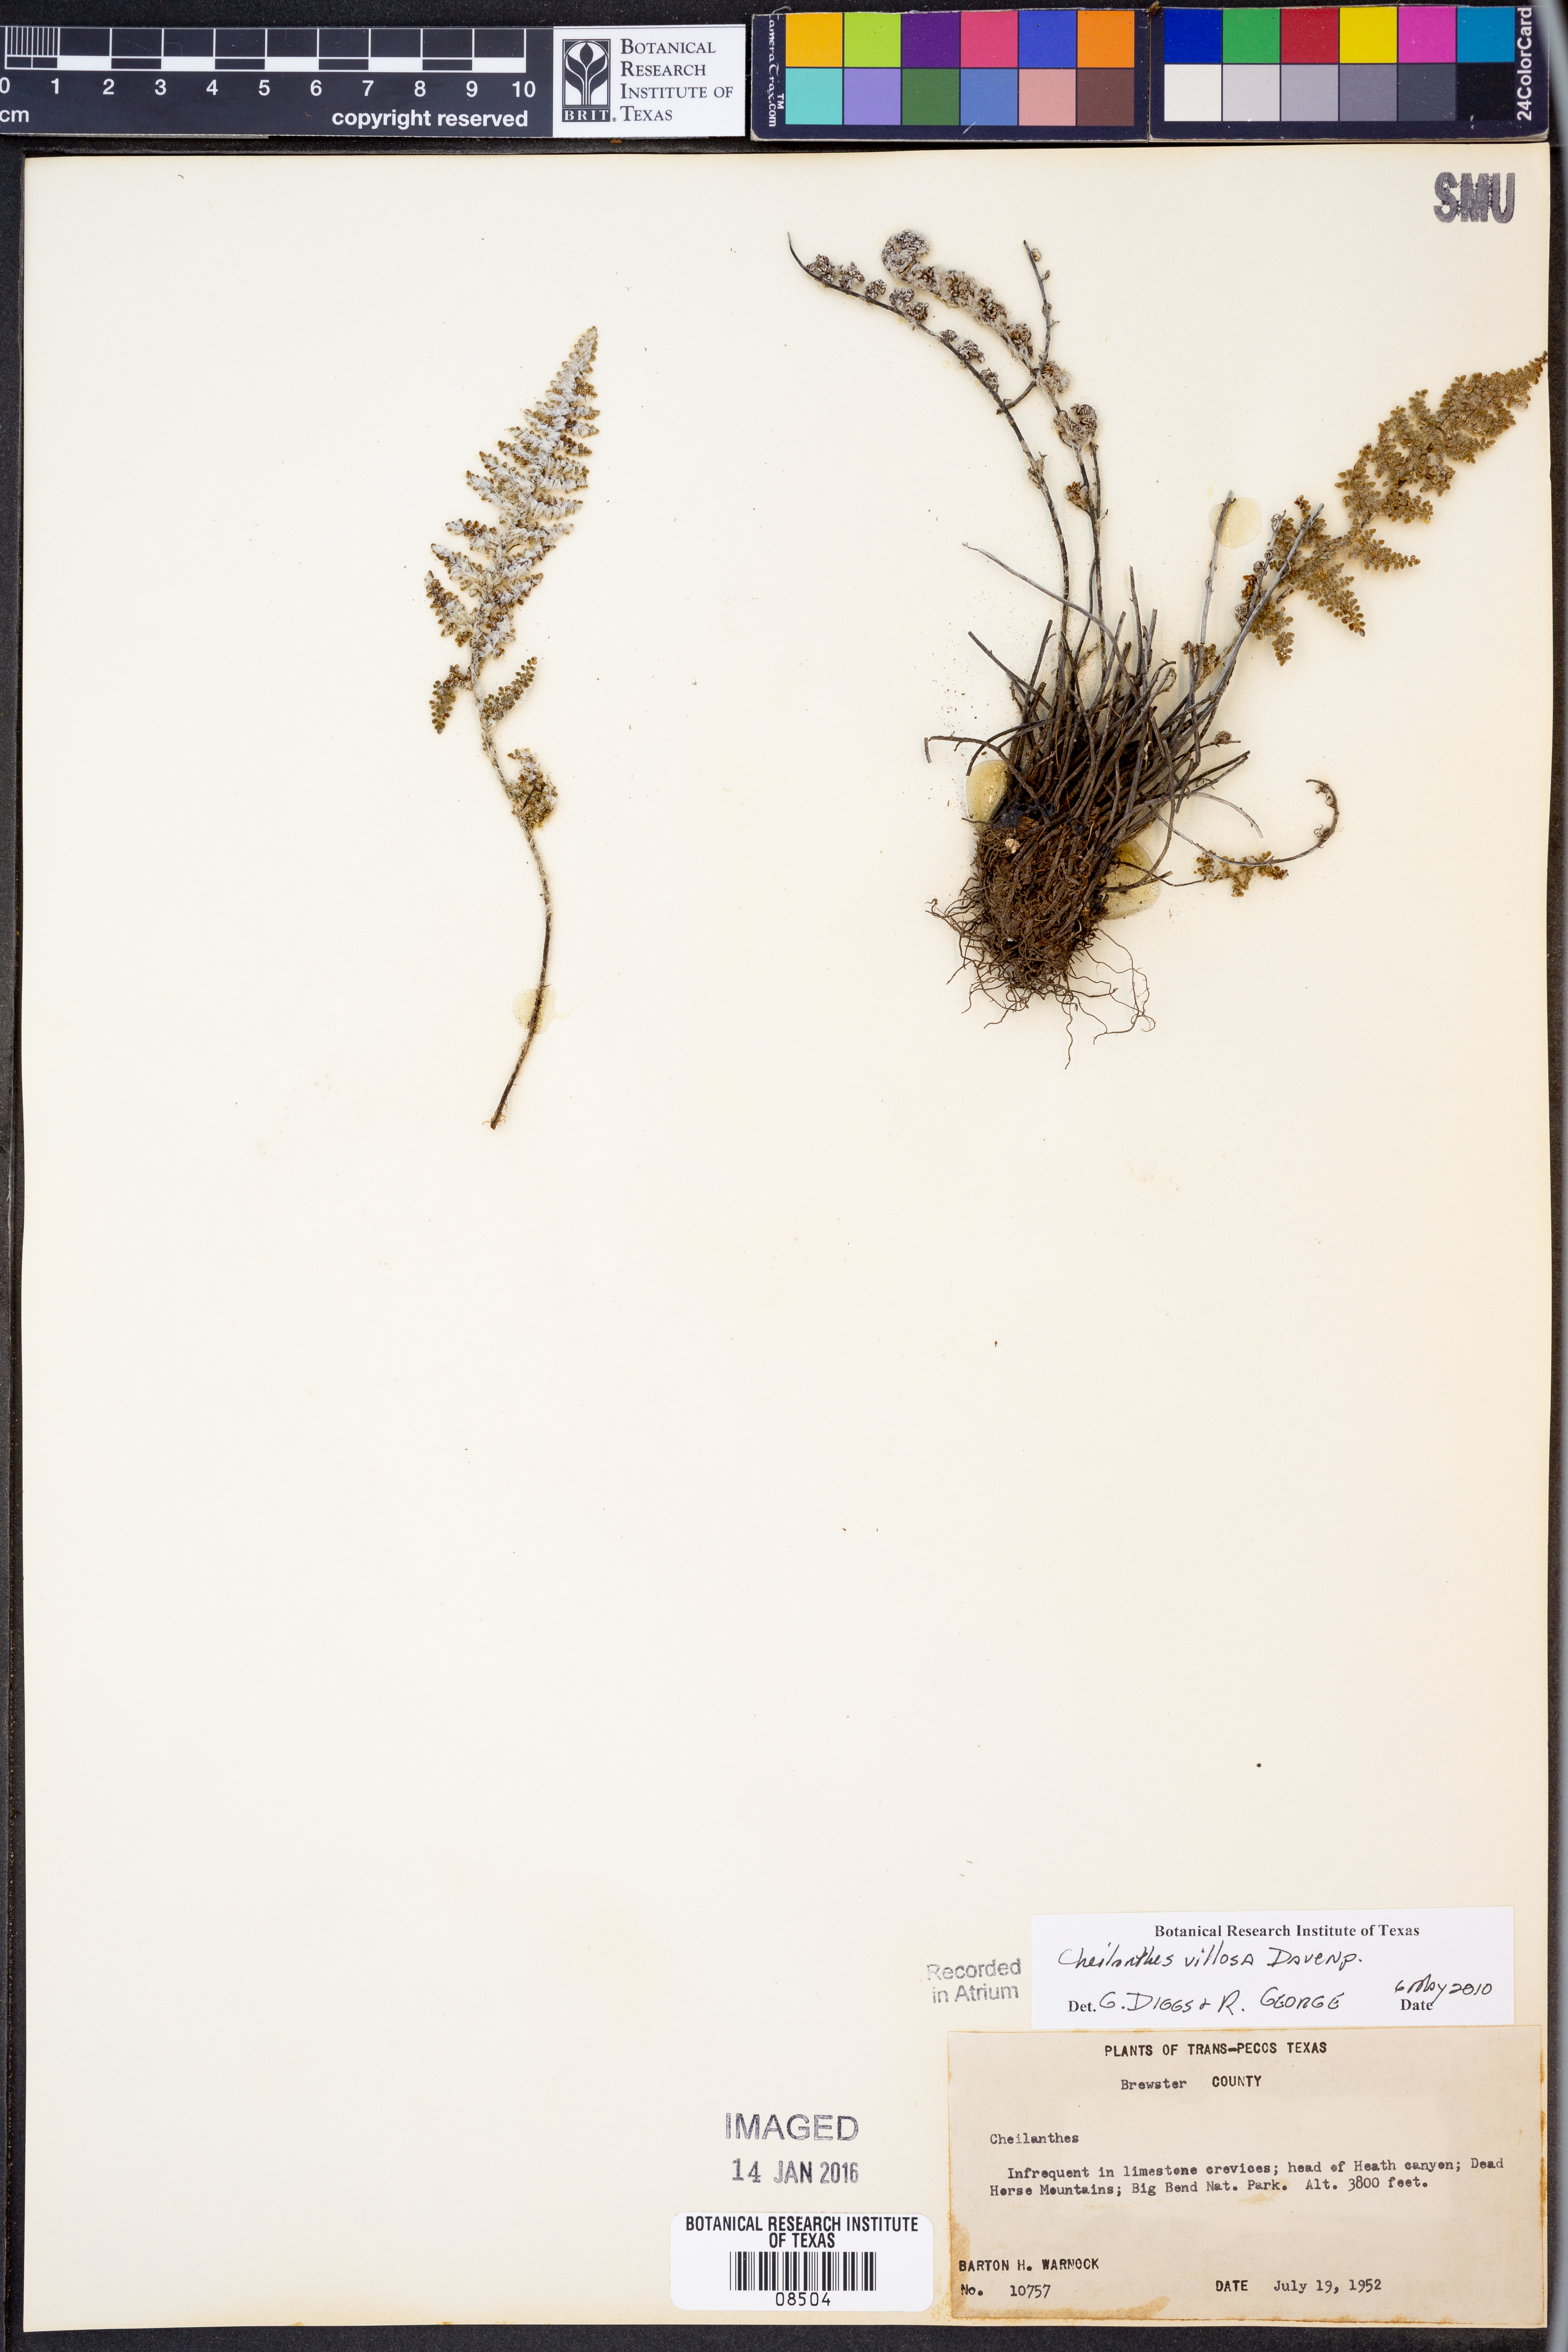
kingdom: Plantae
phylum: Tracheophyta
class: Polypodiopsida
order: Polypodiales
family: Pteridaceae
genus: Myriopteris
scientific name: Myriopteris windhamii
